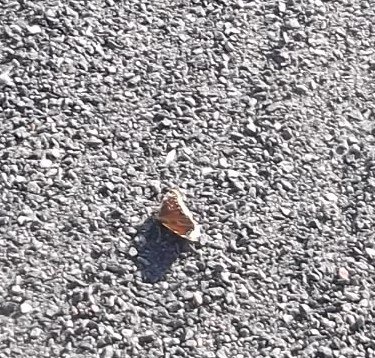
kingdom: Animalia
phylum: Arthropoda
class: Insecta
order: Lepidoptera
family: Nymphalidae
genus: Nymphalis
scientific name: Nymphalis antiopa
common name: Mourning Cloak
